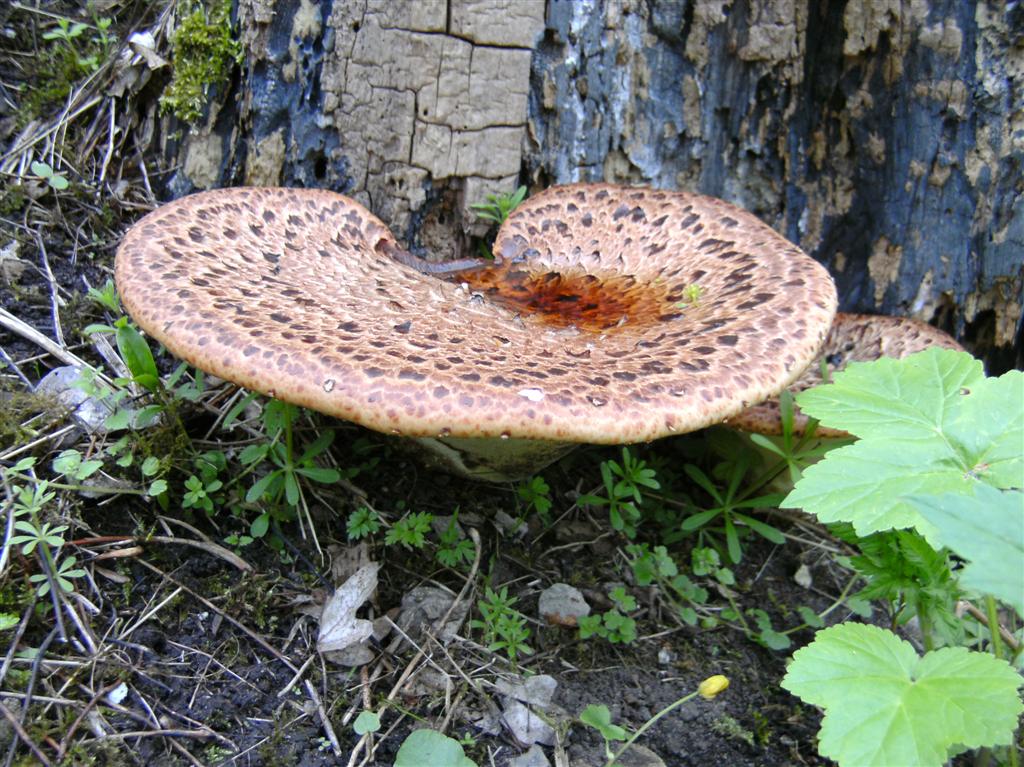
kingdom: Fungi
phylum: Basidiomycota
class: Agaricomycetes
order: Polyporales
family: Polyporaceae
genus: Cerioporus
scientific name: Cerioporus squamosus
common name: skællet stilkporesvamp
